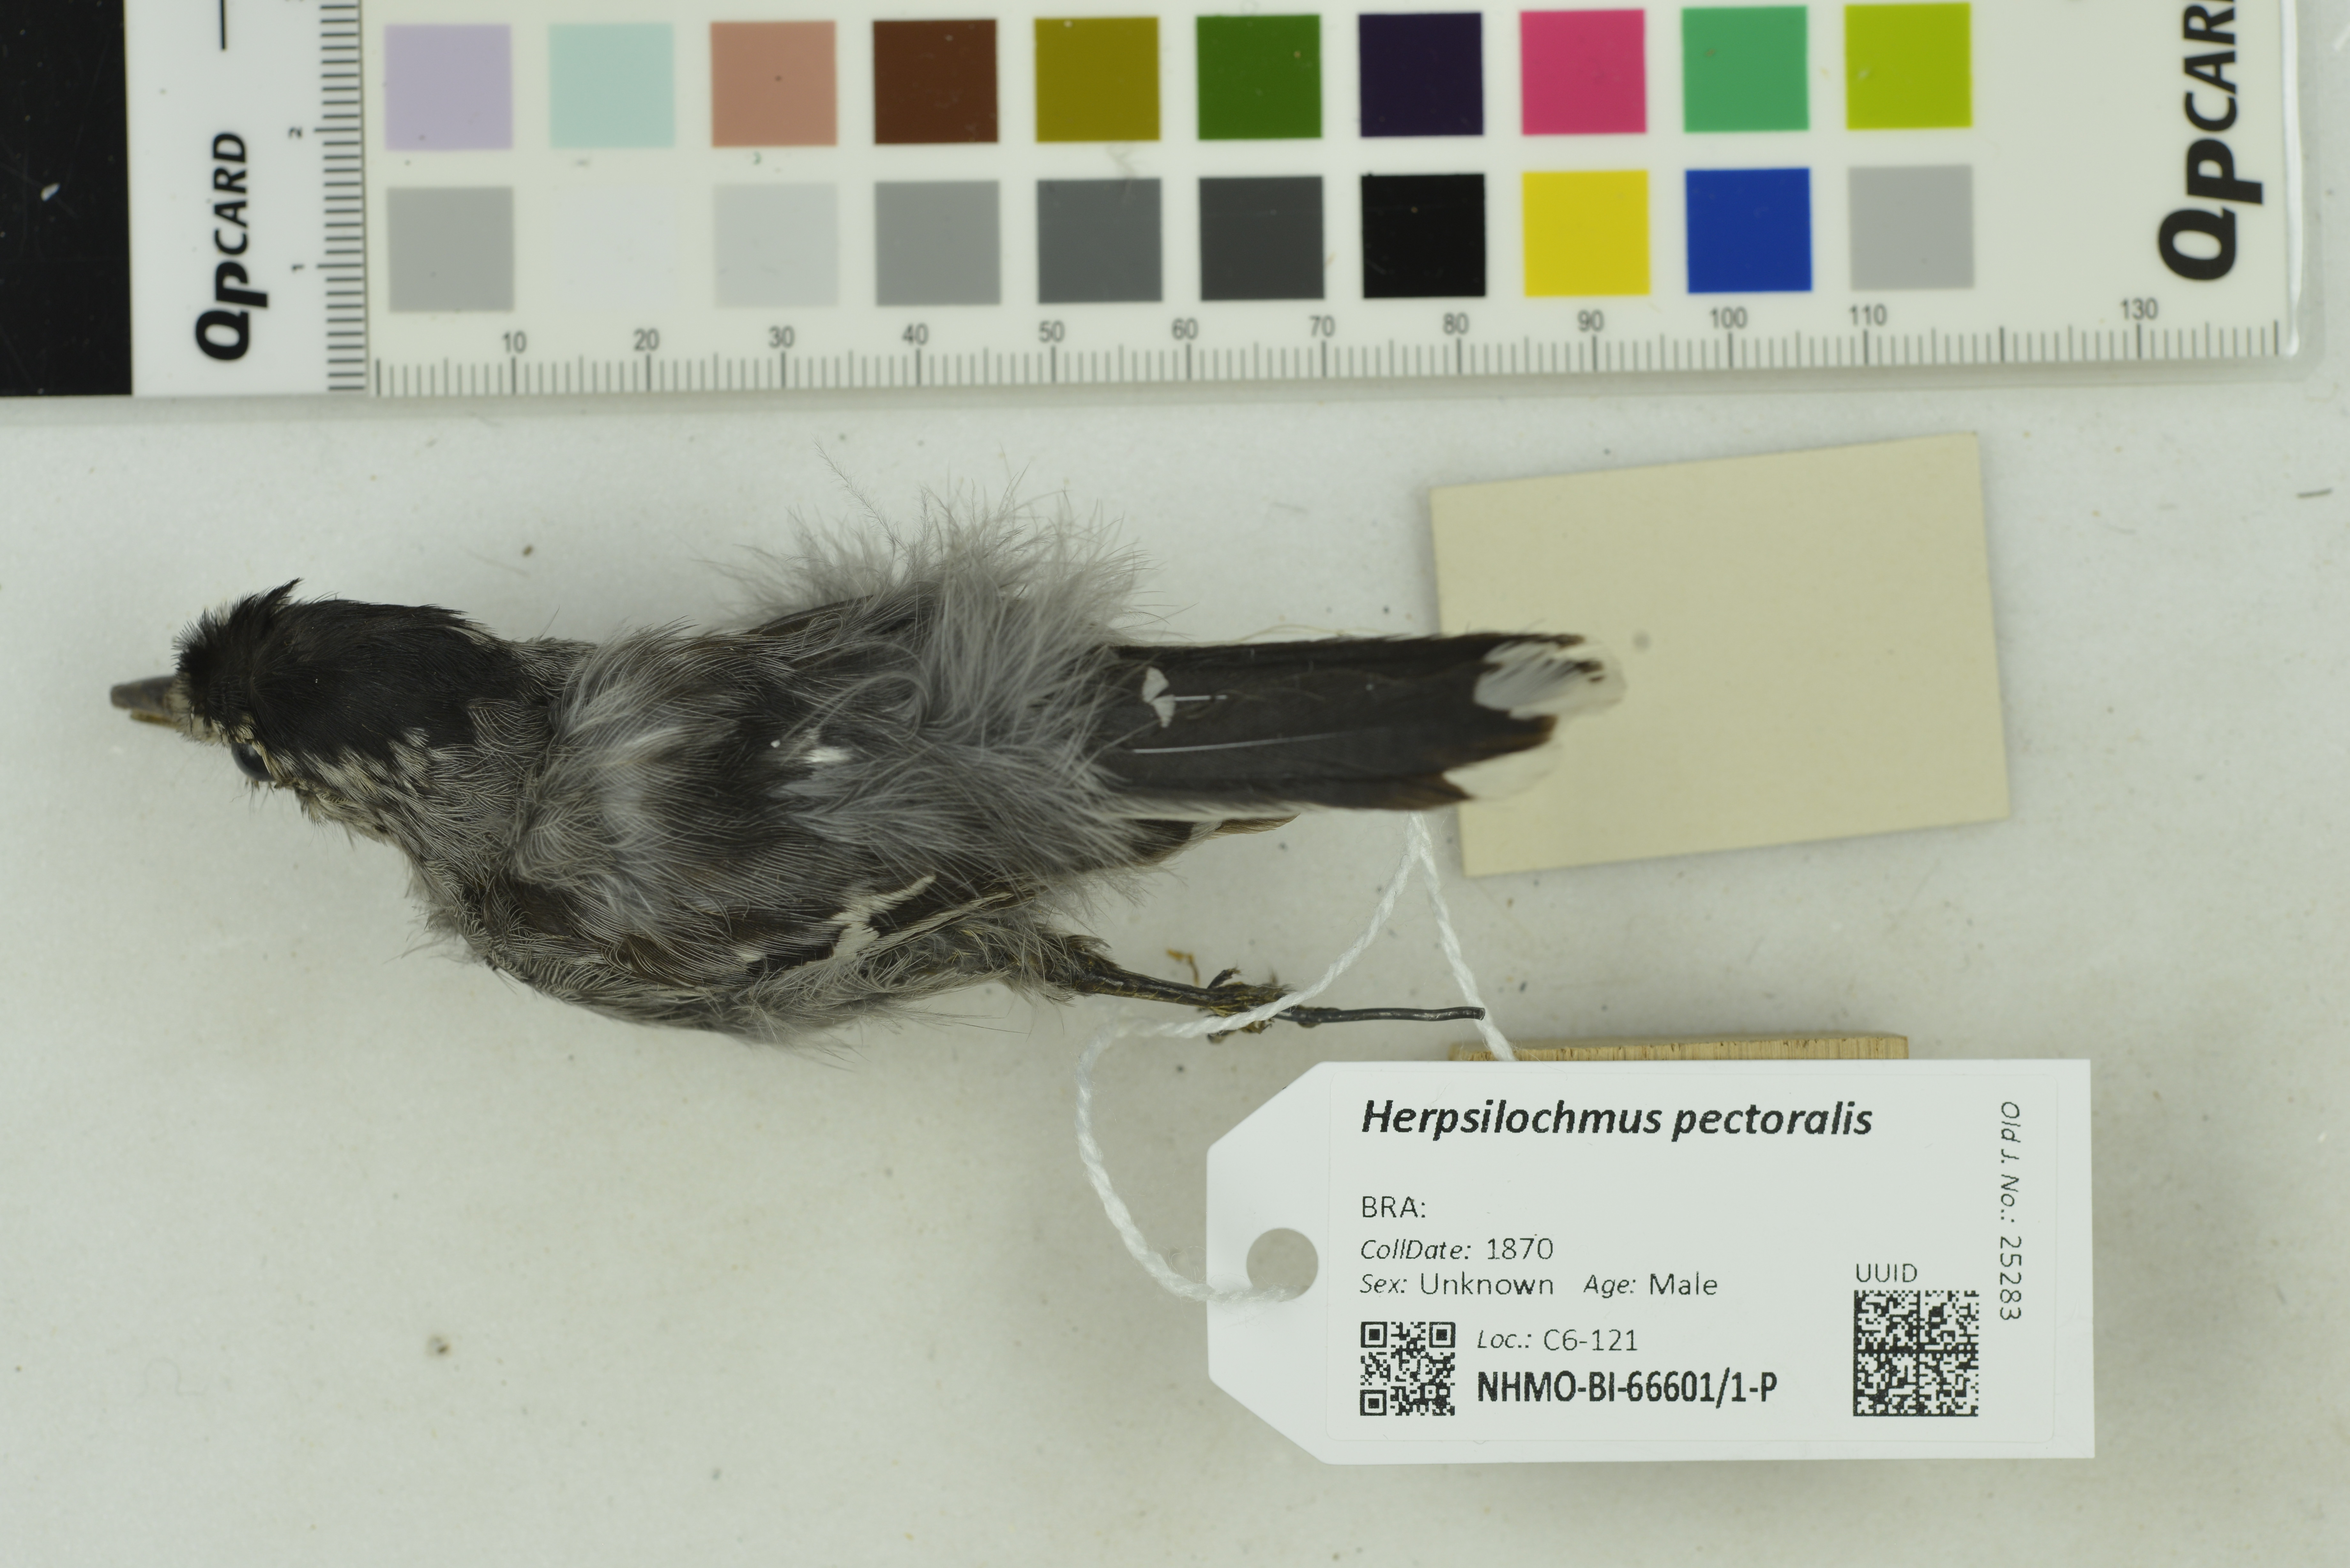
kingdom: Animalia
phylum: Chordata
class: Aves
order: Passeriformes
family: Thamnophilidae
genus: Herpsilochmus
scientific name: Herpsilochmus pectoralis
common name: Pectoral antwren
